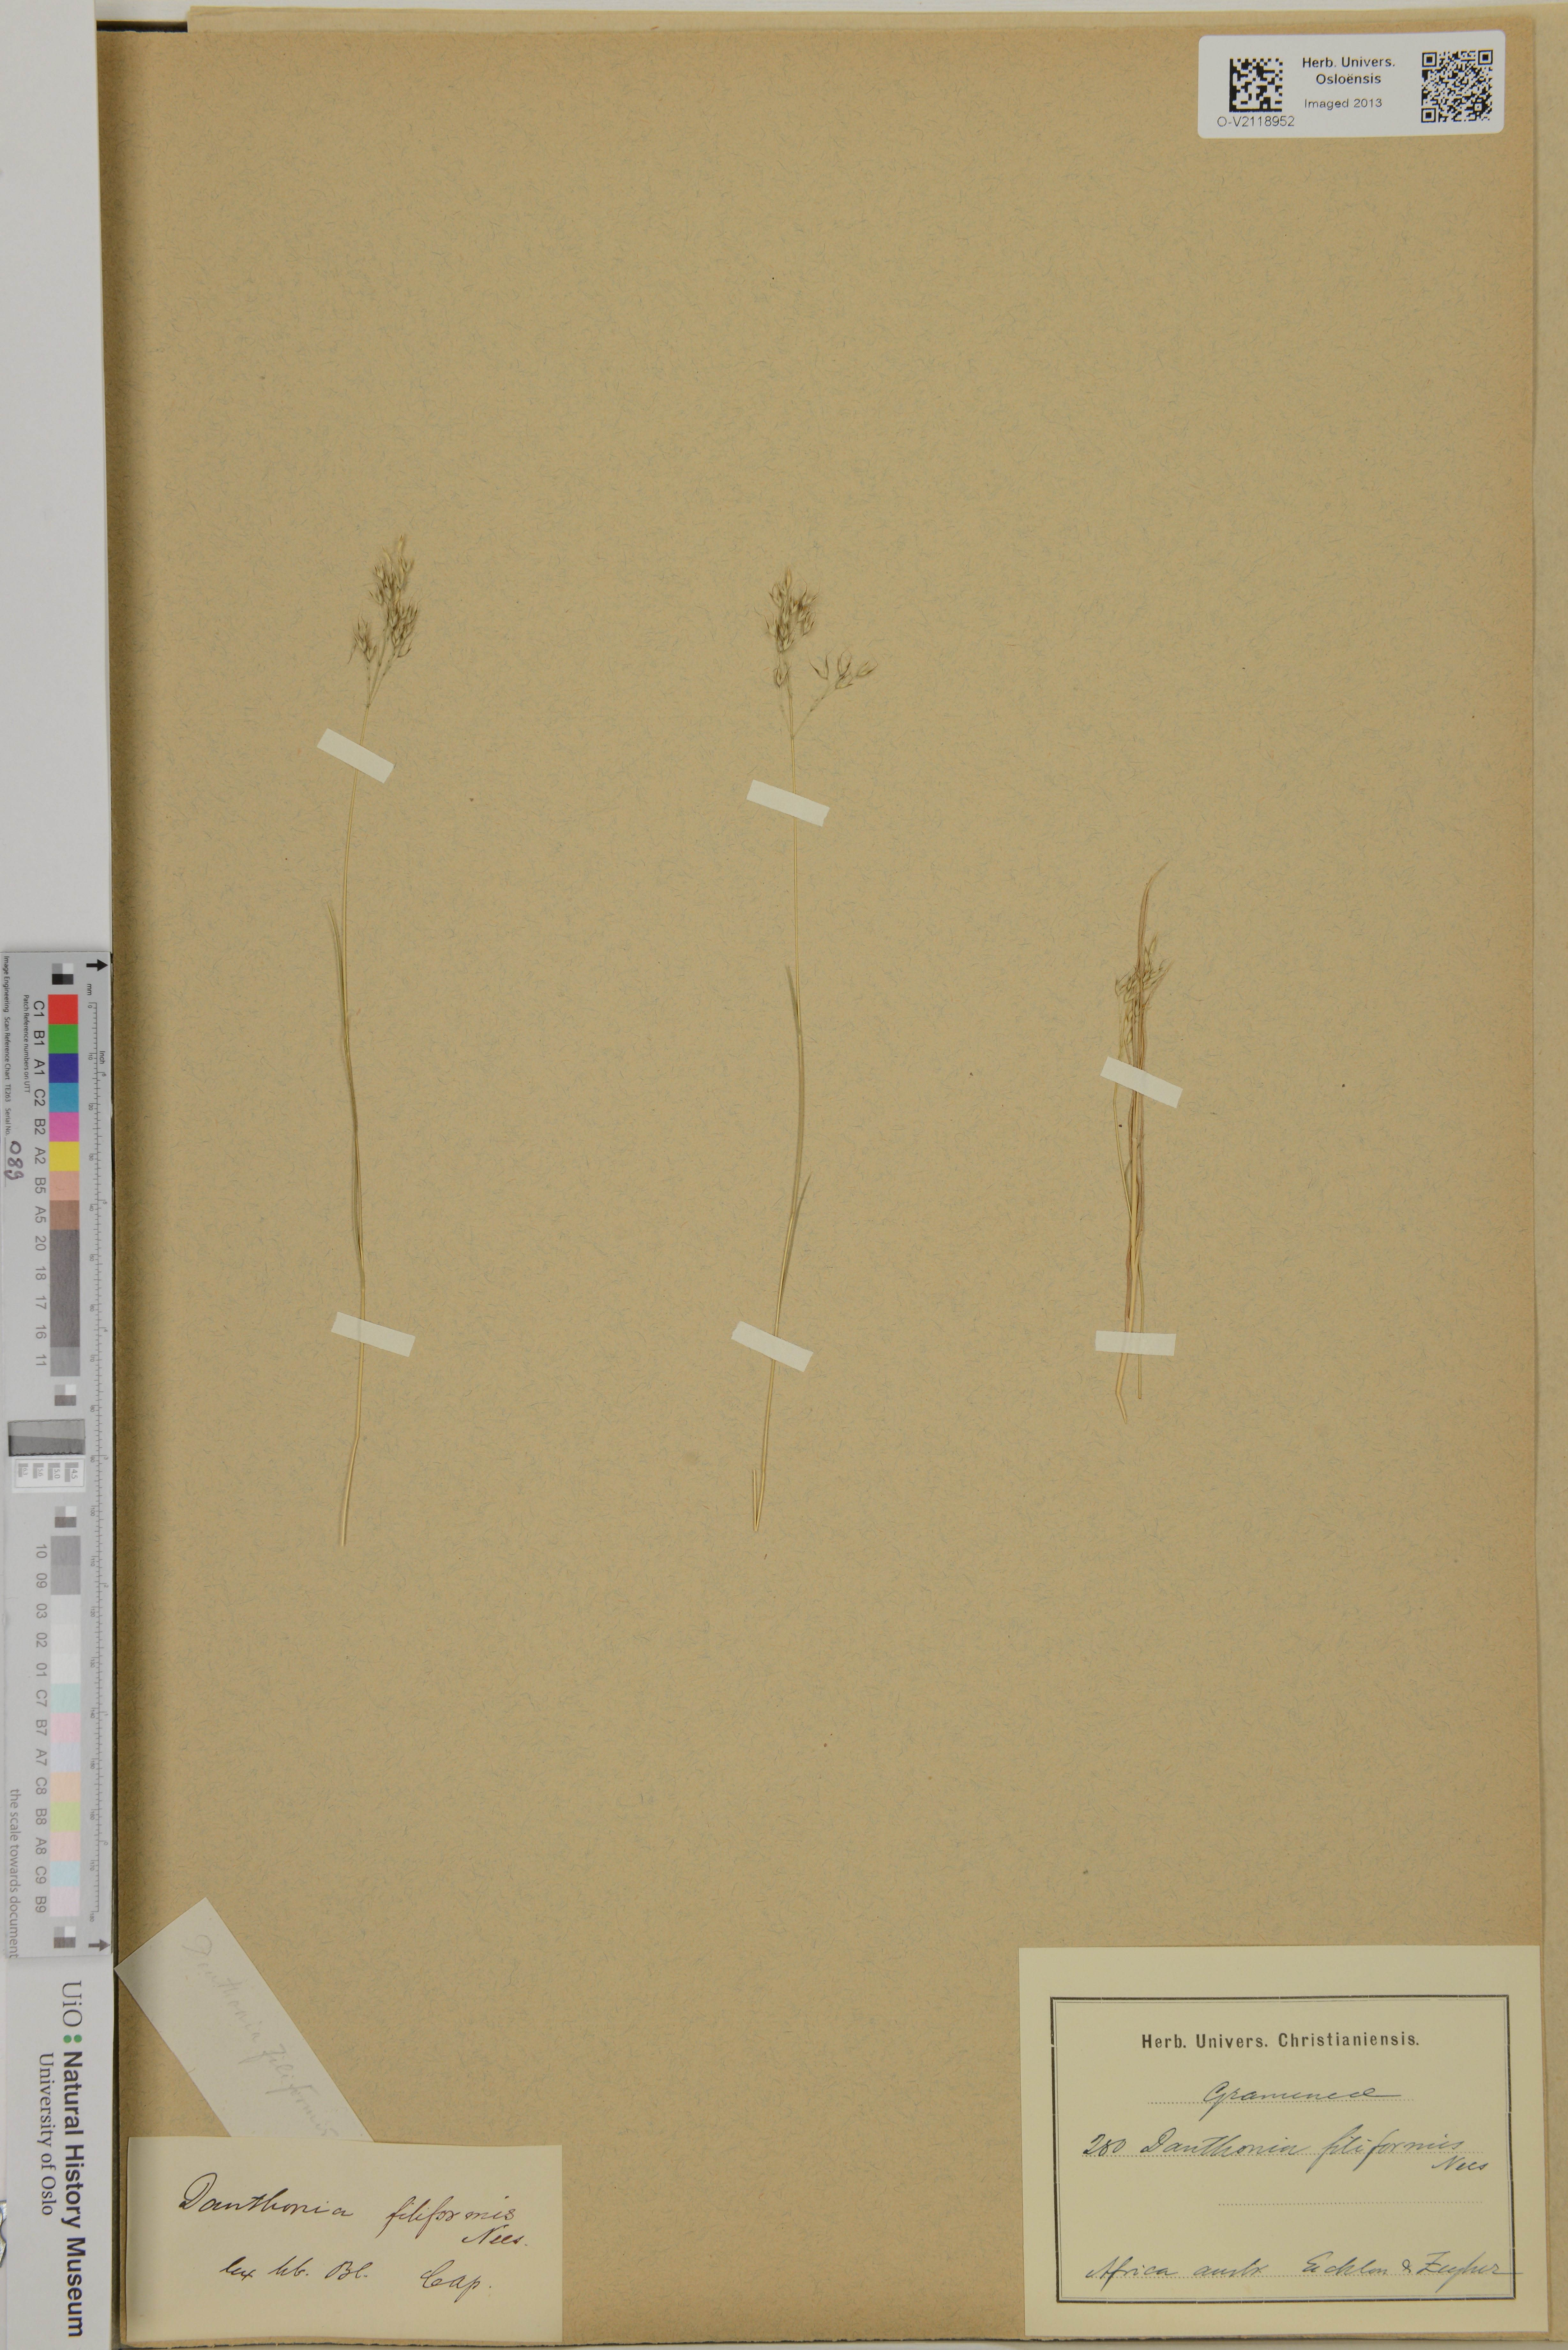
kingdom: Plantae
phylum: Tracheophyta
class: Liliopsida
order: Poales
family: Poaceae
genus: Pentameris
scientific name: Pentameris pallida
